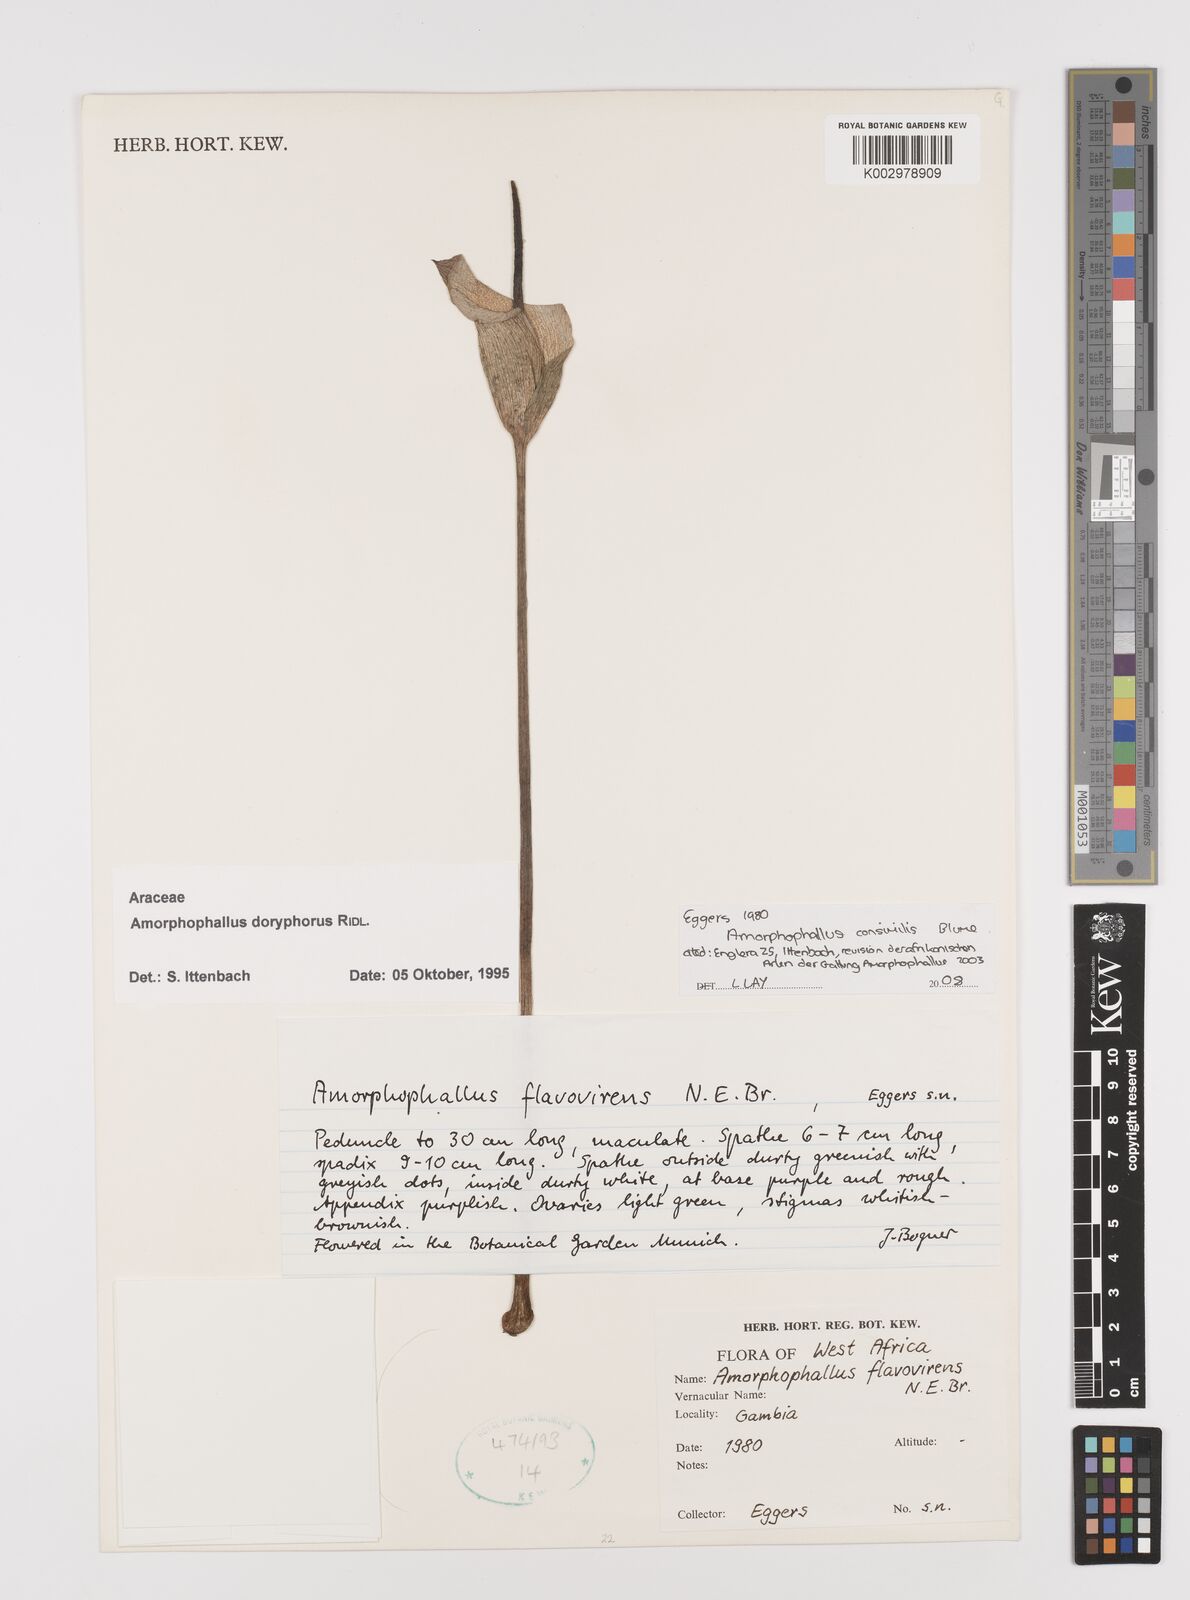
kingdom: Plantae
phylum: Tracheophyta
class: Liliopsida
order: Alismatales
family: Araceae
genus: Amorphophallus
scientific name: Amorphophallus consimilis
